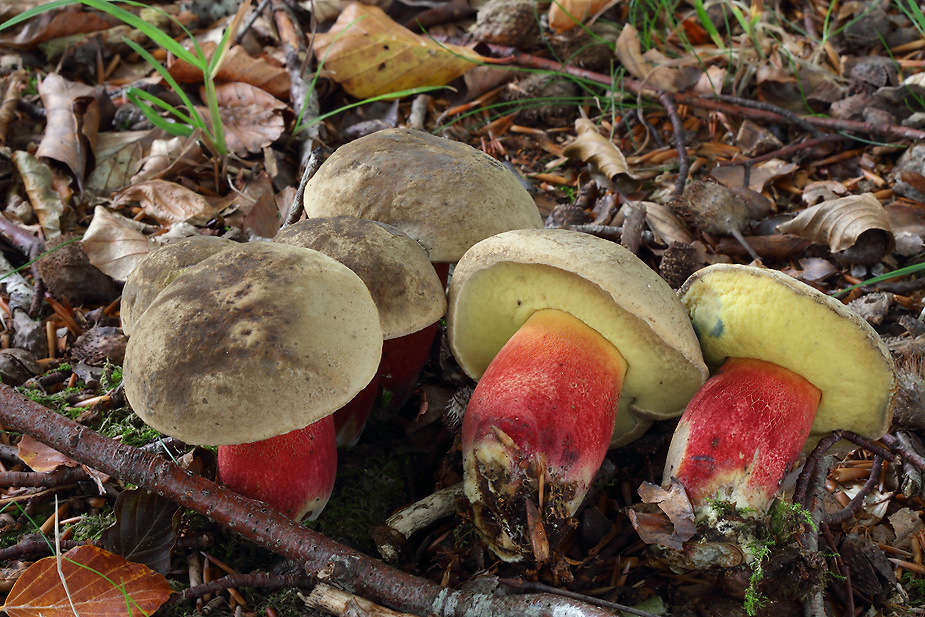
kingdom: Fungi
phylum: Basidiomycota
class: Agaricomycetes
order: Boletales
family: Boletaceae
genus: Caloboletus
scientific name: Caloboletus calopus
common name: skønfodet rørhat
